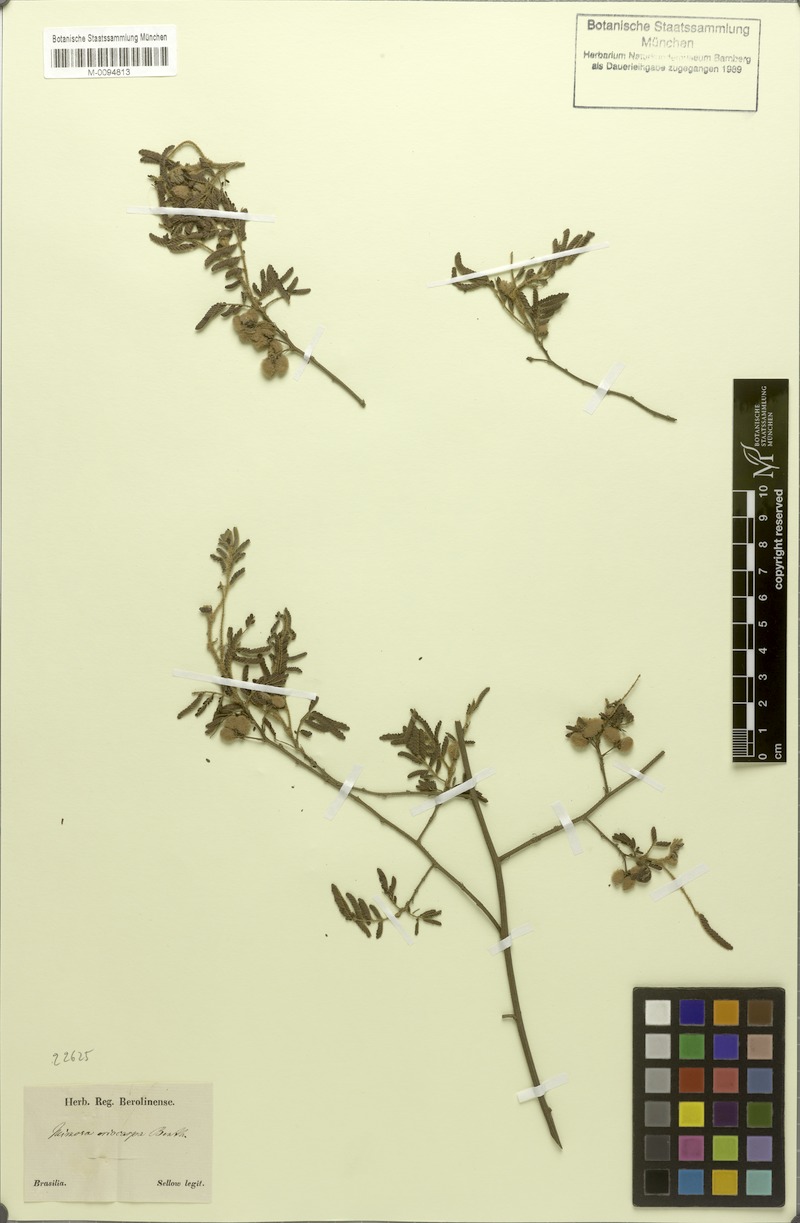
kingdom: Plantae
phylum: Tracheophyta
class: Magnoliopsida
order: Fabales
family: Fabaceae
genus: Mimosa
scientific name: Mimosa eriocarpa
